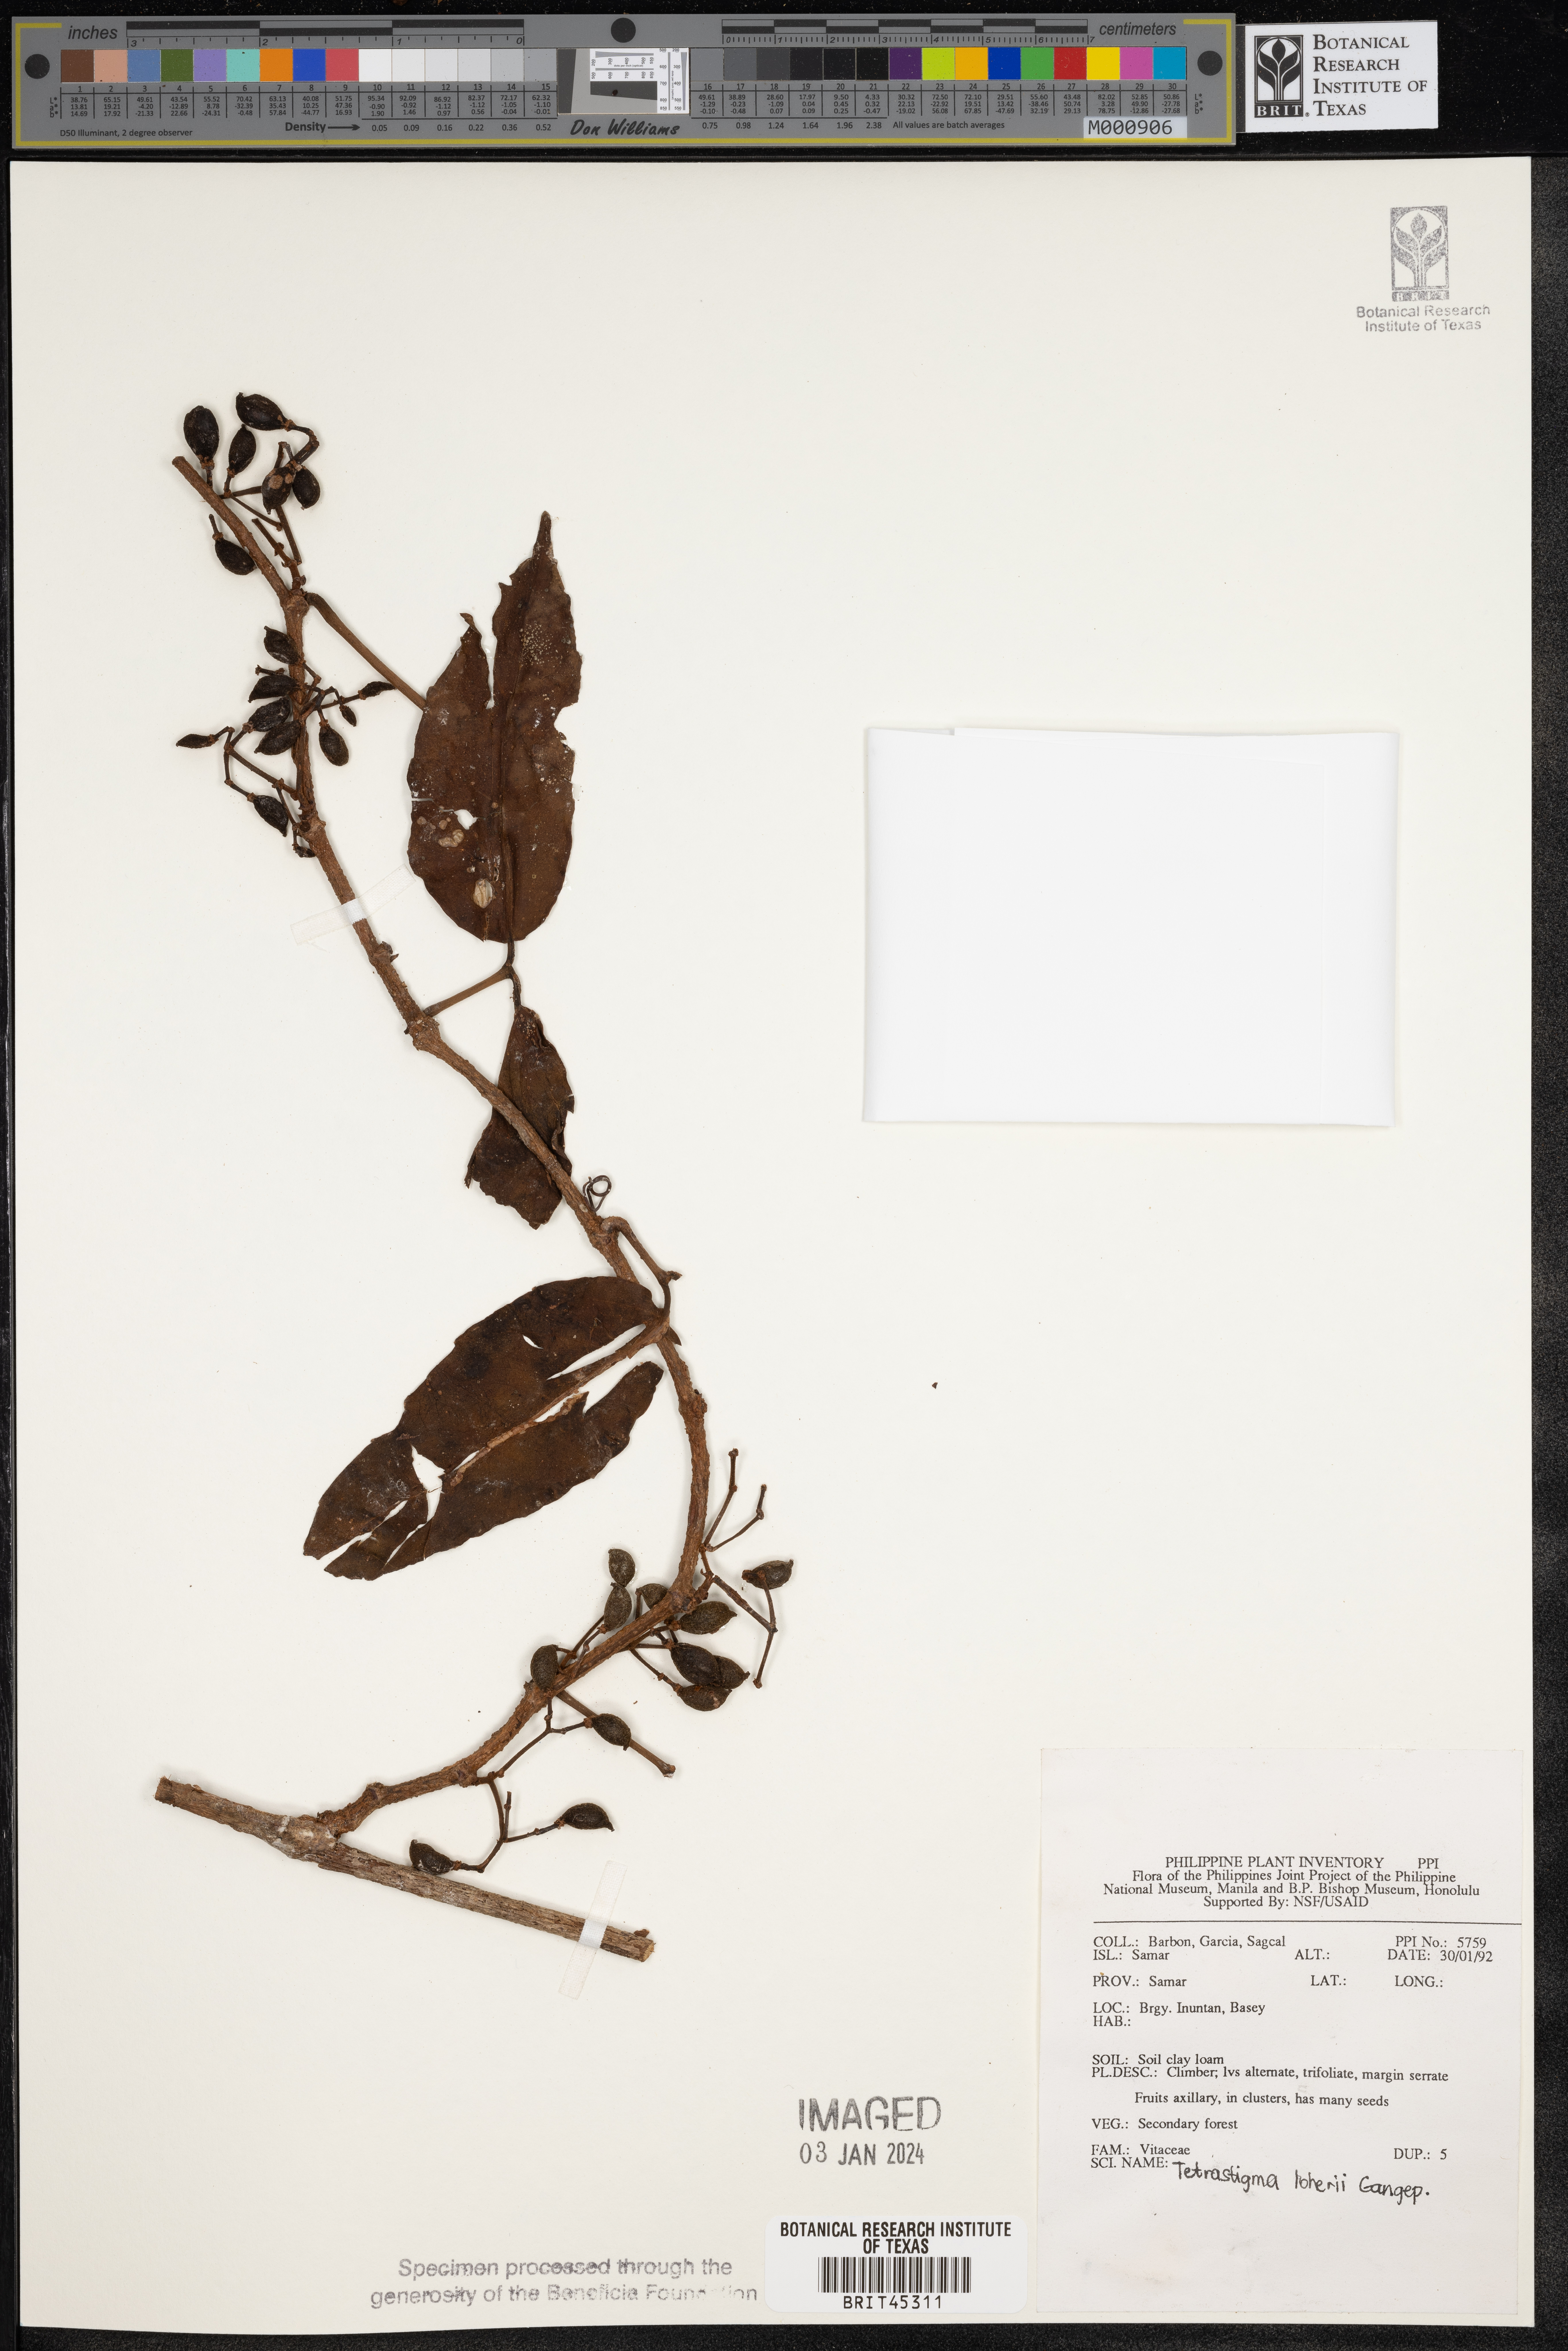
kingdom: Plantae
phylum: Tracheophyta
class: Magnoliopsida
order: Vitales
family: Vitaceae
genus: Tetrastigma
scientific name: Tetrastigma loheri
